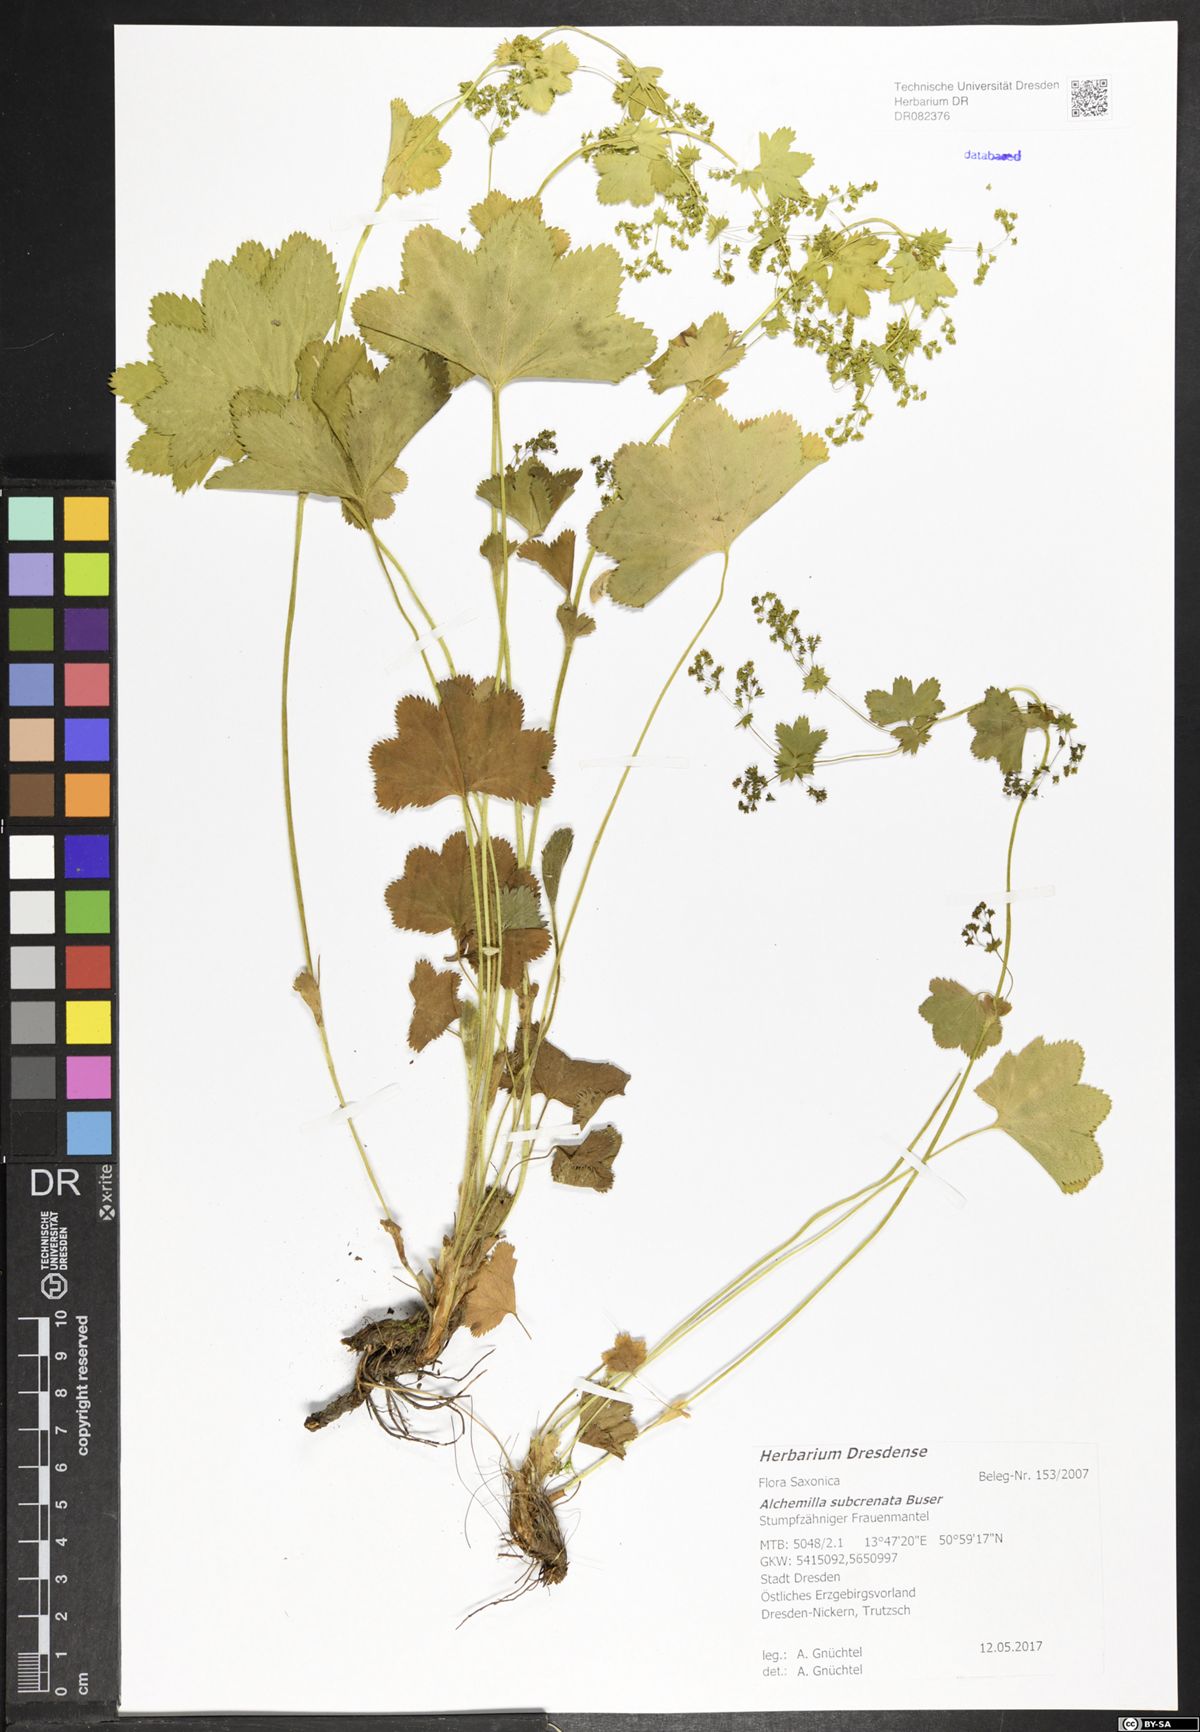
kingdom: Plantae
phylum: Tracheophyta
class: Magnoliopsida
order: Rosales
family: Rosaceae
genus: Alchemilla
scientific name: Alchemilla subcrenata
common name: Broadtooth lady's mantle
